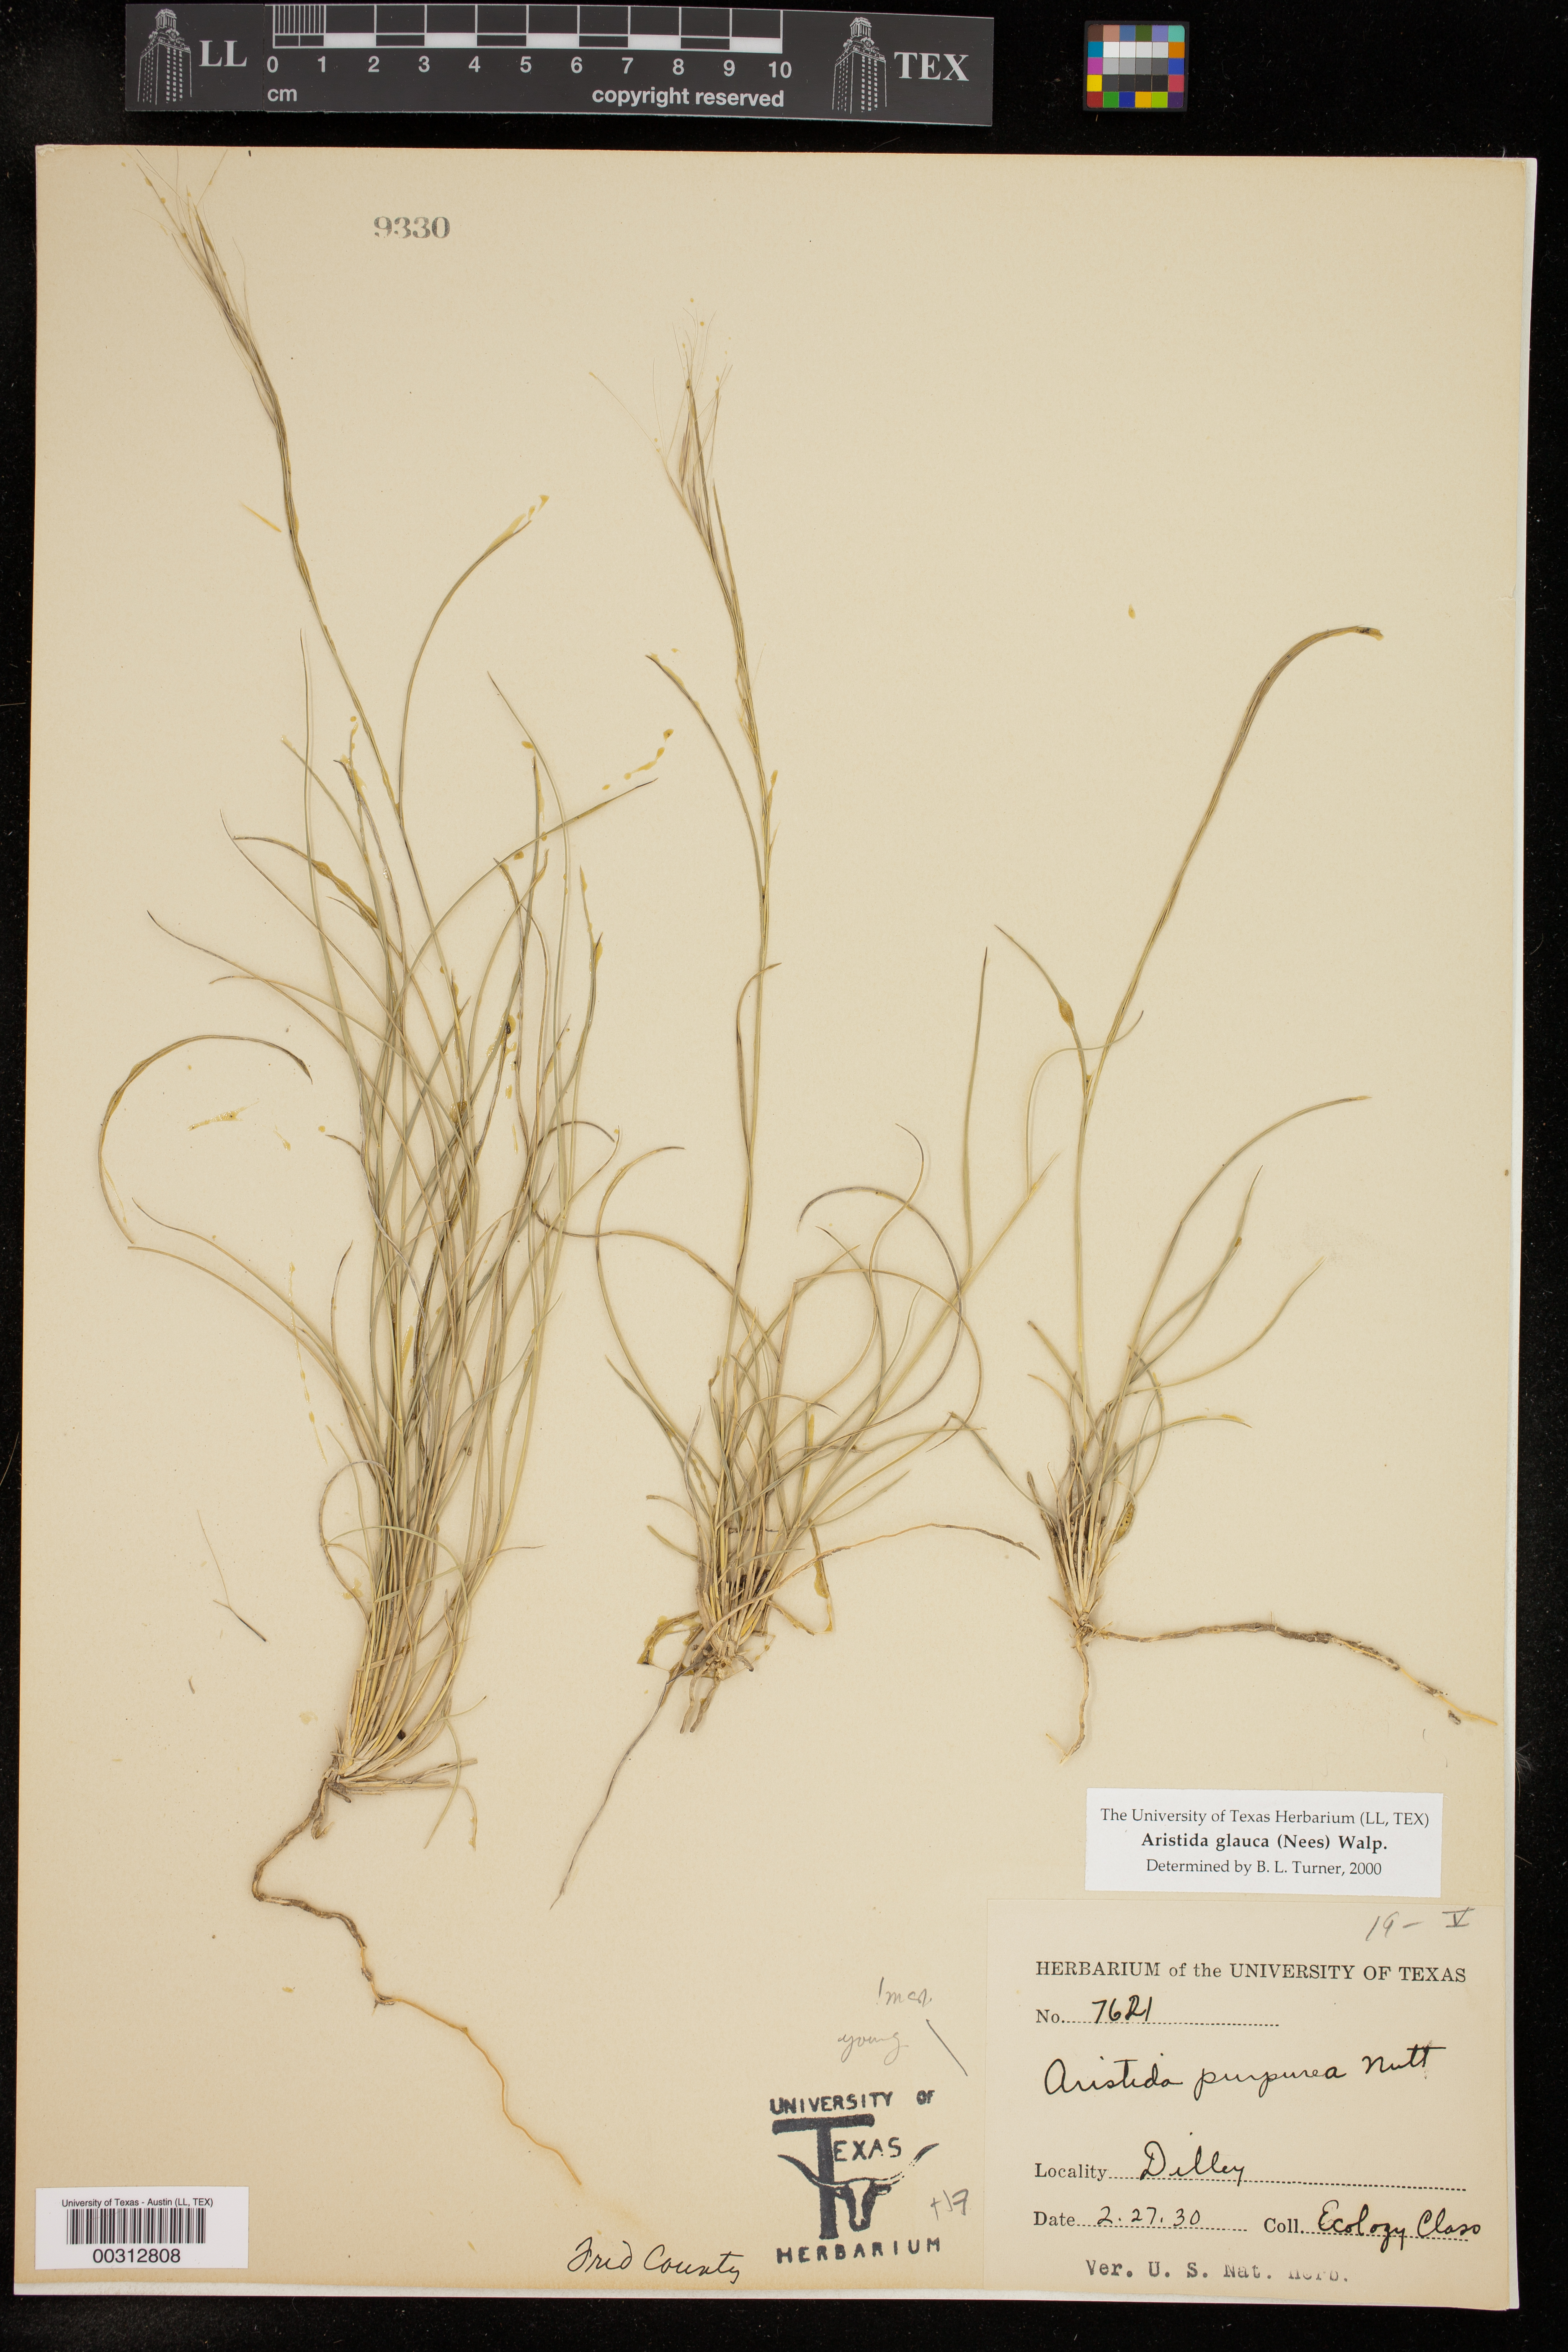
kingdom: Plantae
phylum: Tracheophyta
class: Liliopsida
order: Poales
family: Poaceae
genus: Aristida
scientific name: Aristida glauca
